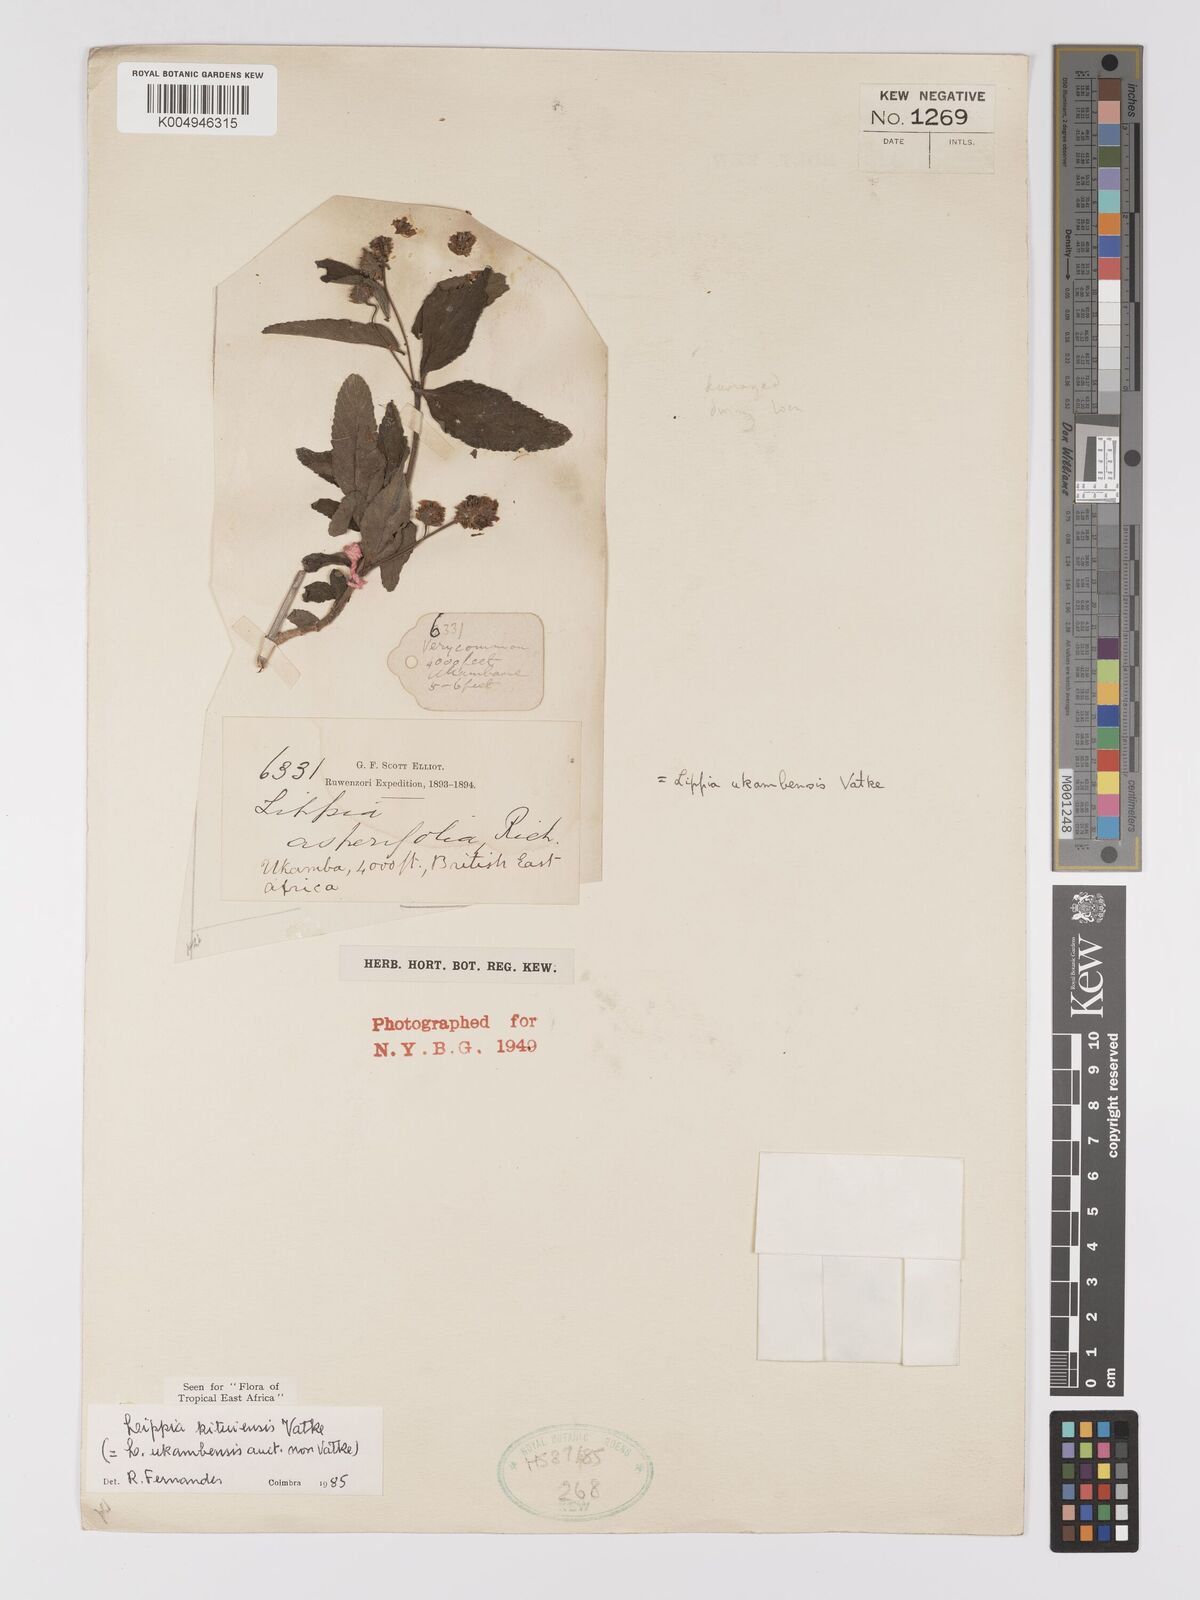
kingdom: Plantae
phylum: Tracheophyta
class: Magnoliopsida
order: Lamiales
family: Verbenaceae
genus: Lippia
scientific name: Lippia kituiensis
